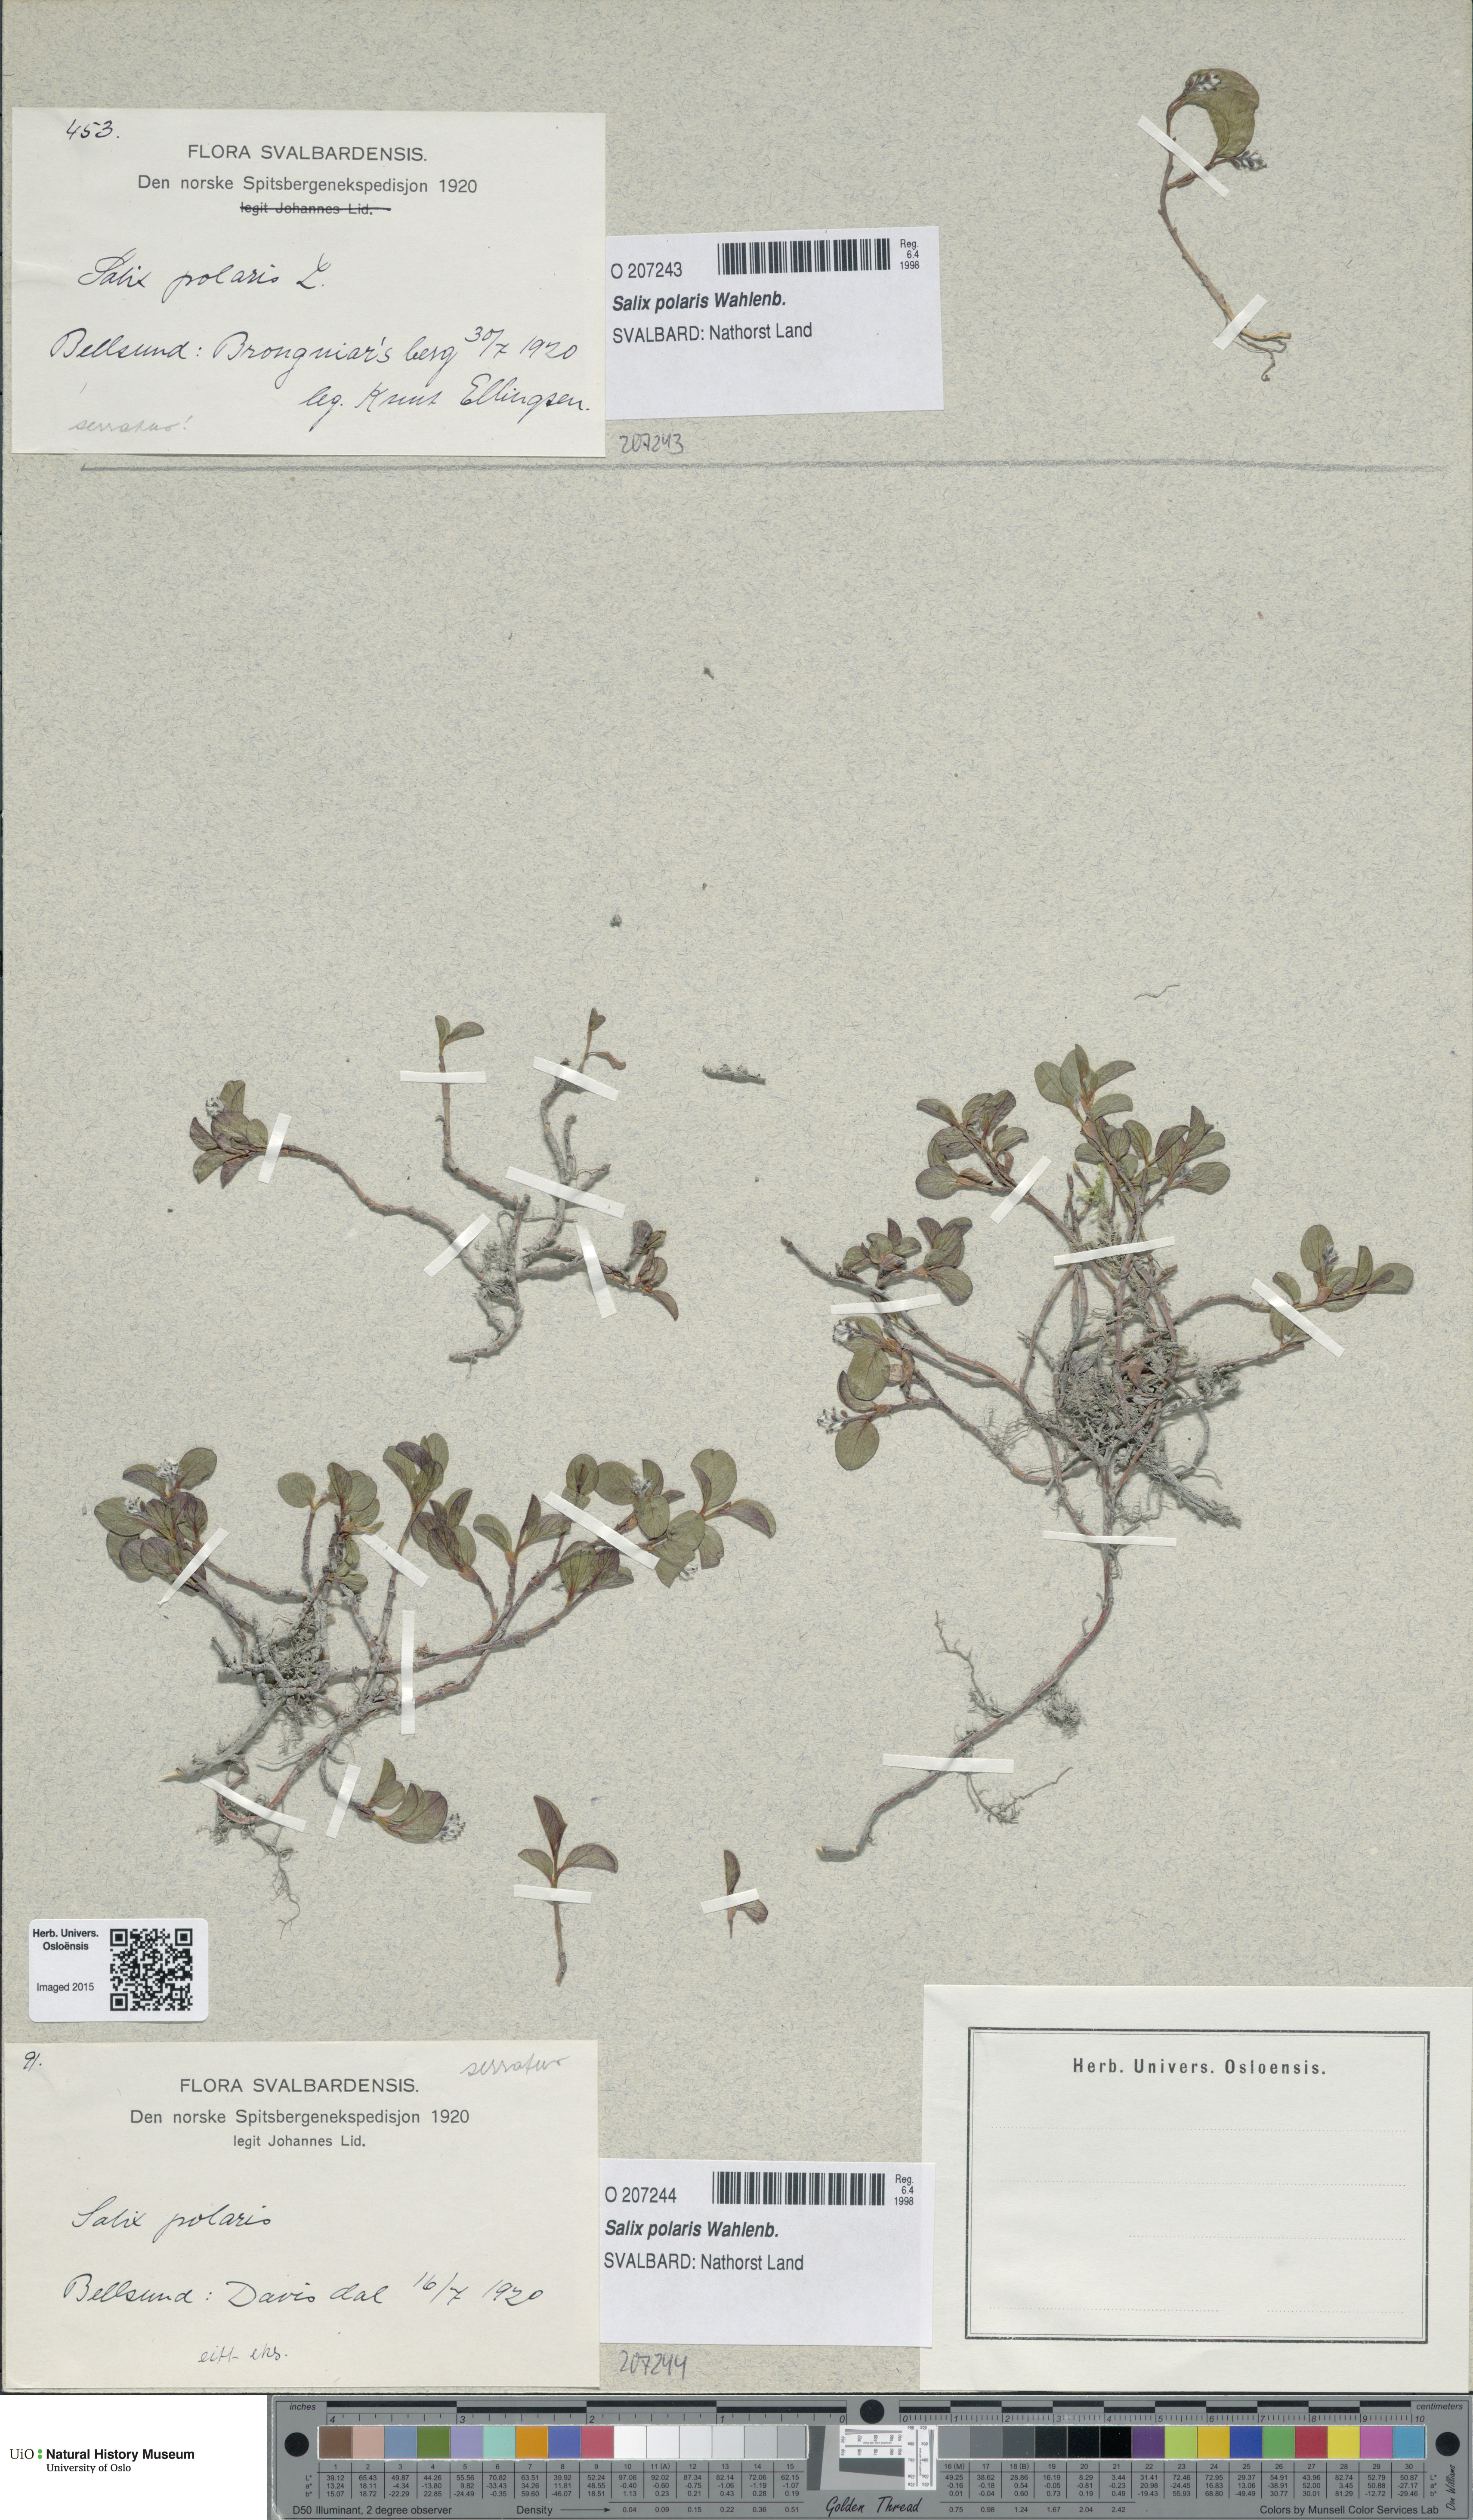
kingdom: Plantae
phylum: Tracheophyta
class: Magnoliopsida
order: Malpighiales
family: Salicaceae
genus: Salix
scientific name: Salix polaris
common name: Polar willow
